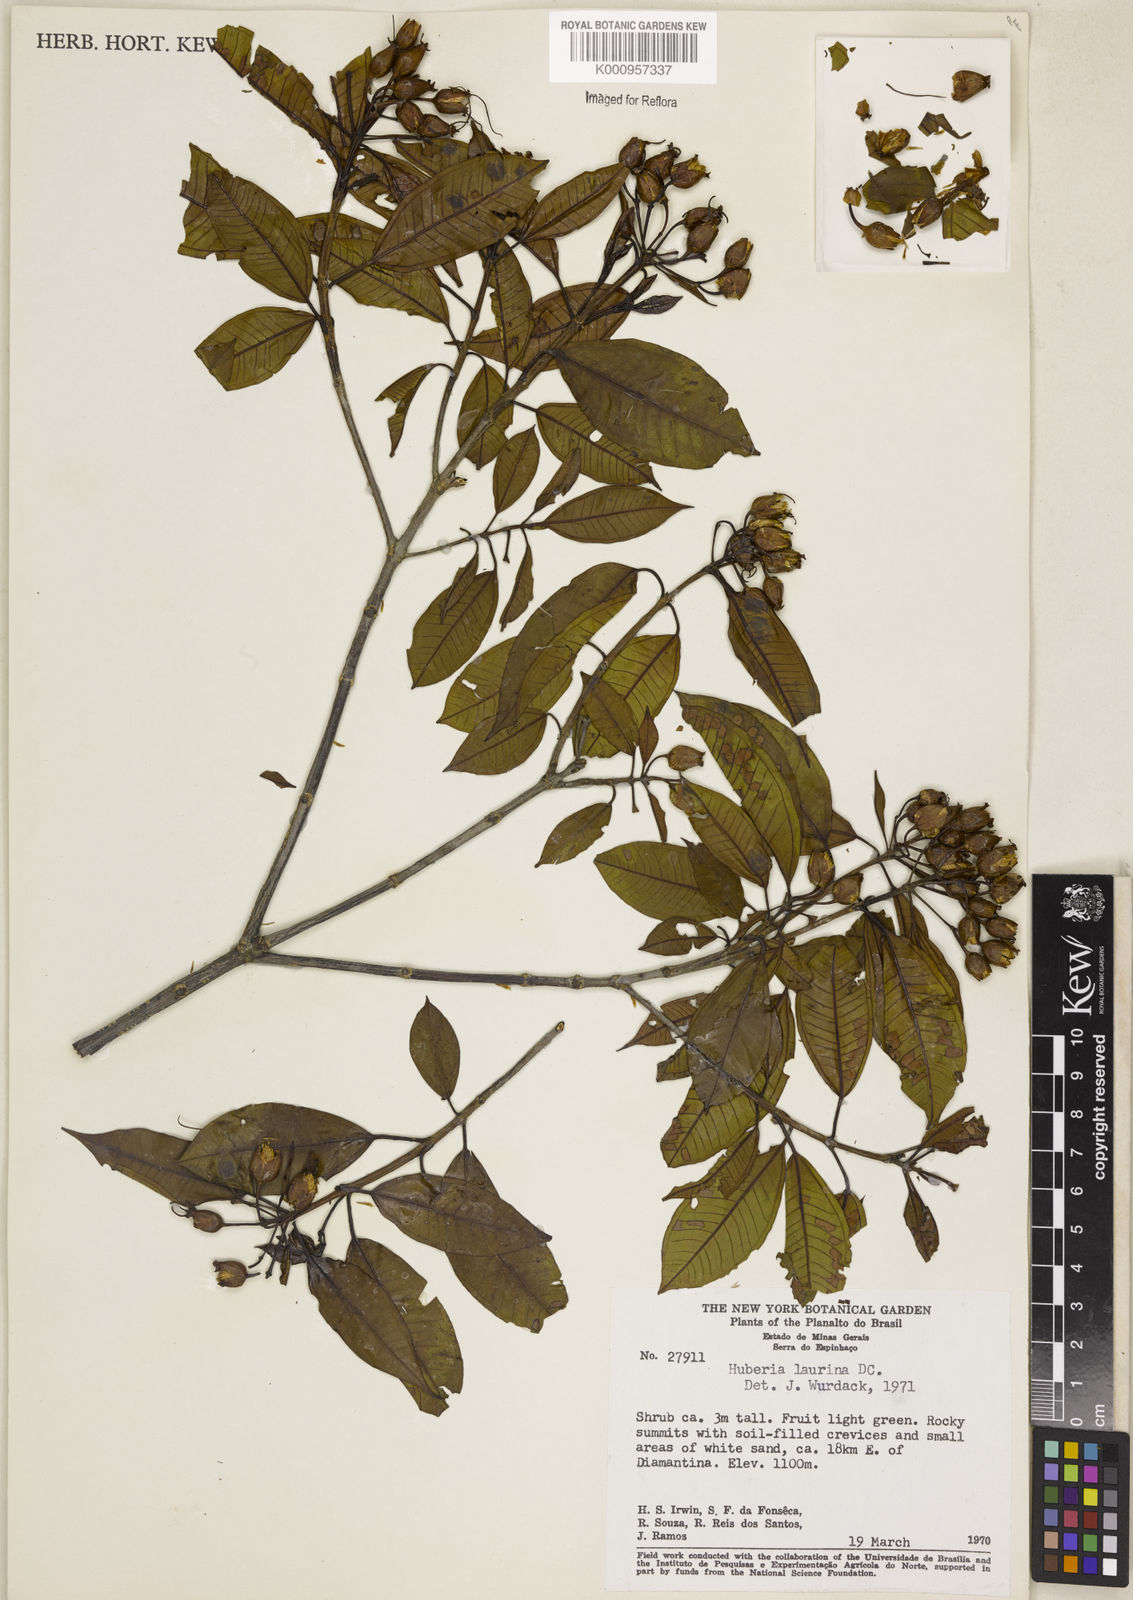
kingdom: Plantae
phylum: Tracheophyta
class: Magnoliopsida
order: Myrtales
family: Melastomataceae
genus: Huberia
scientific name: Huberia laurina
